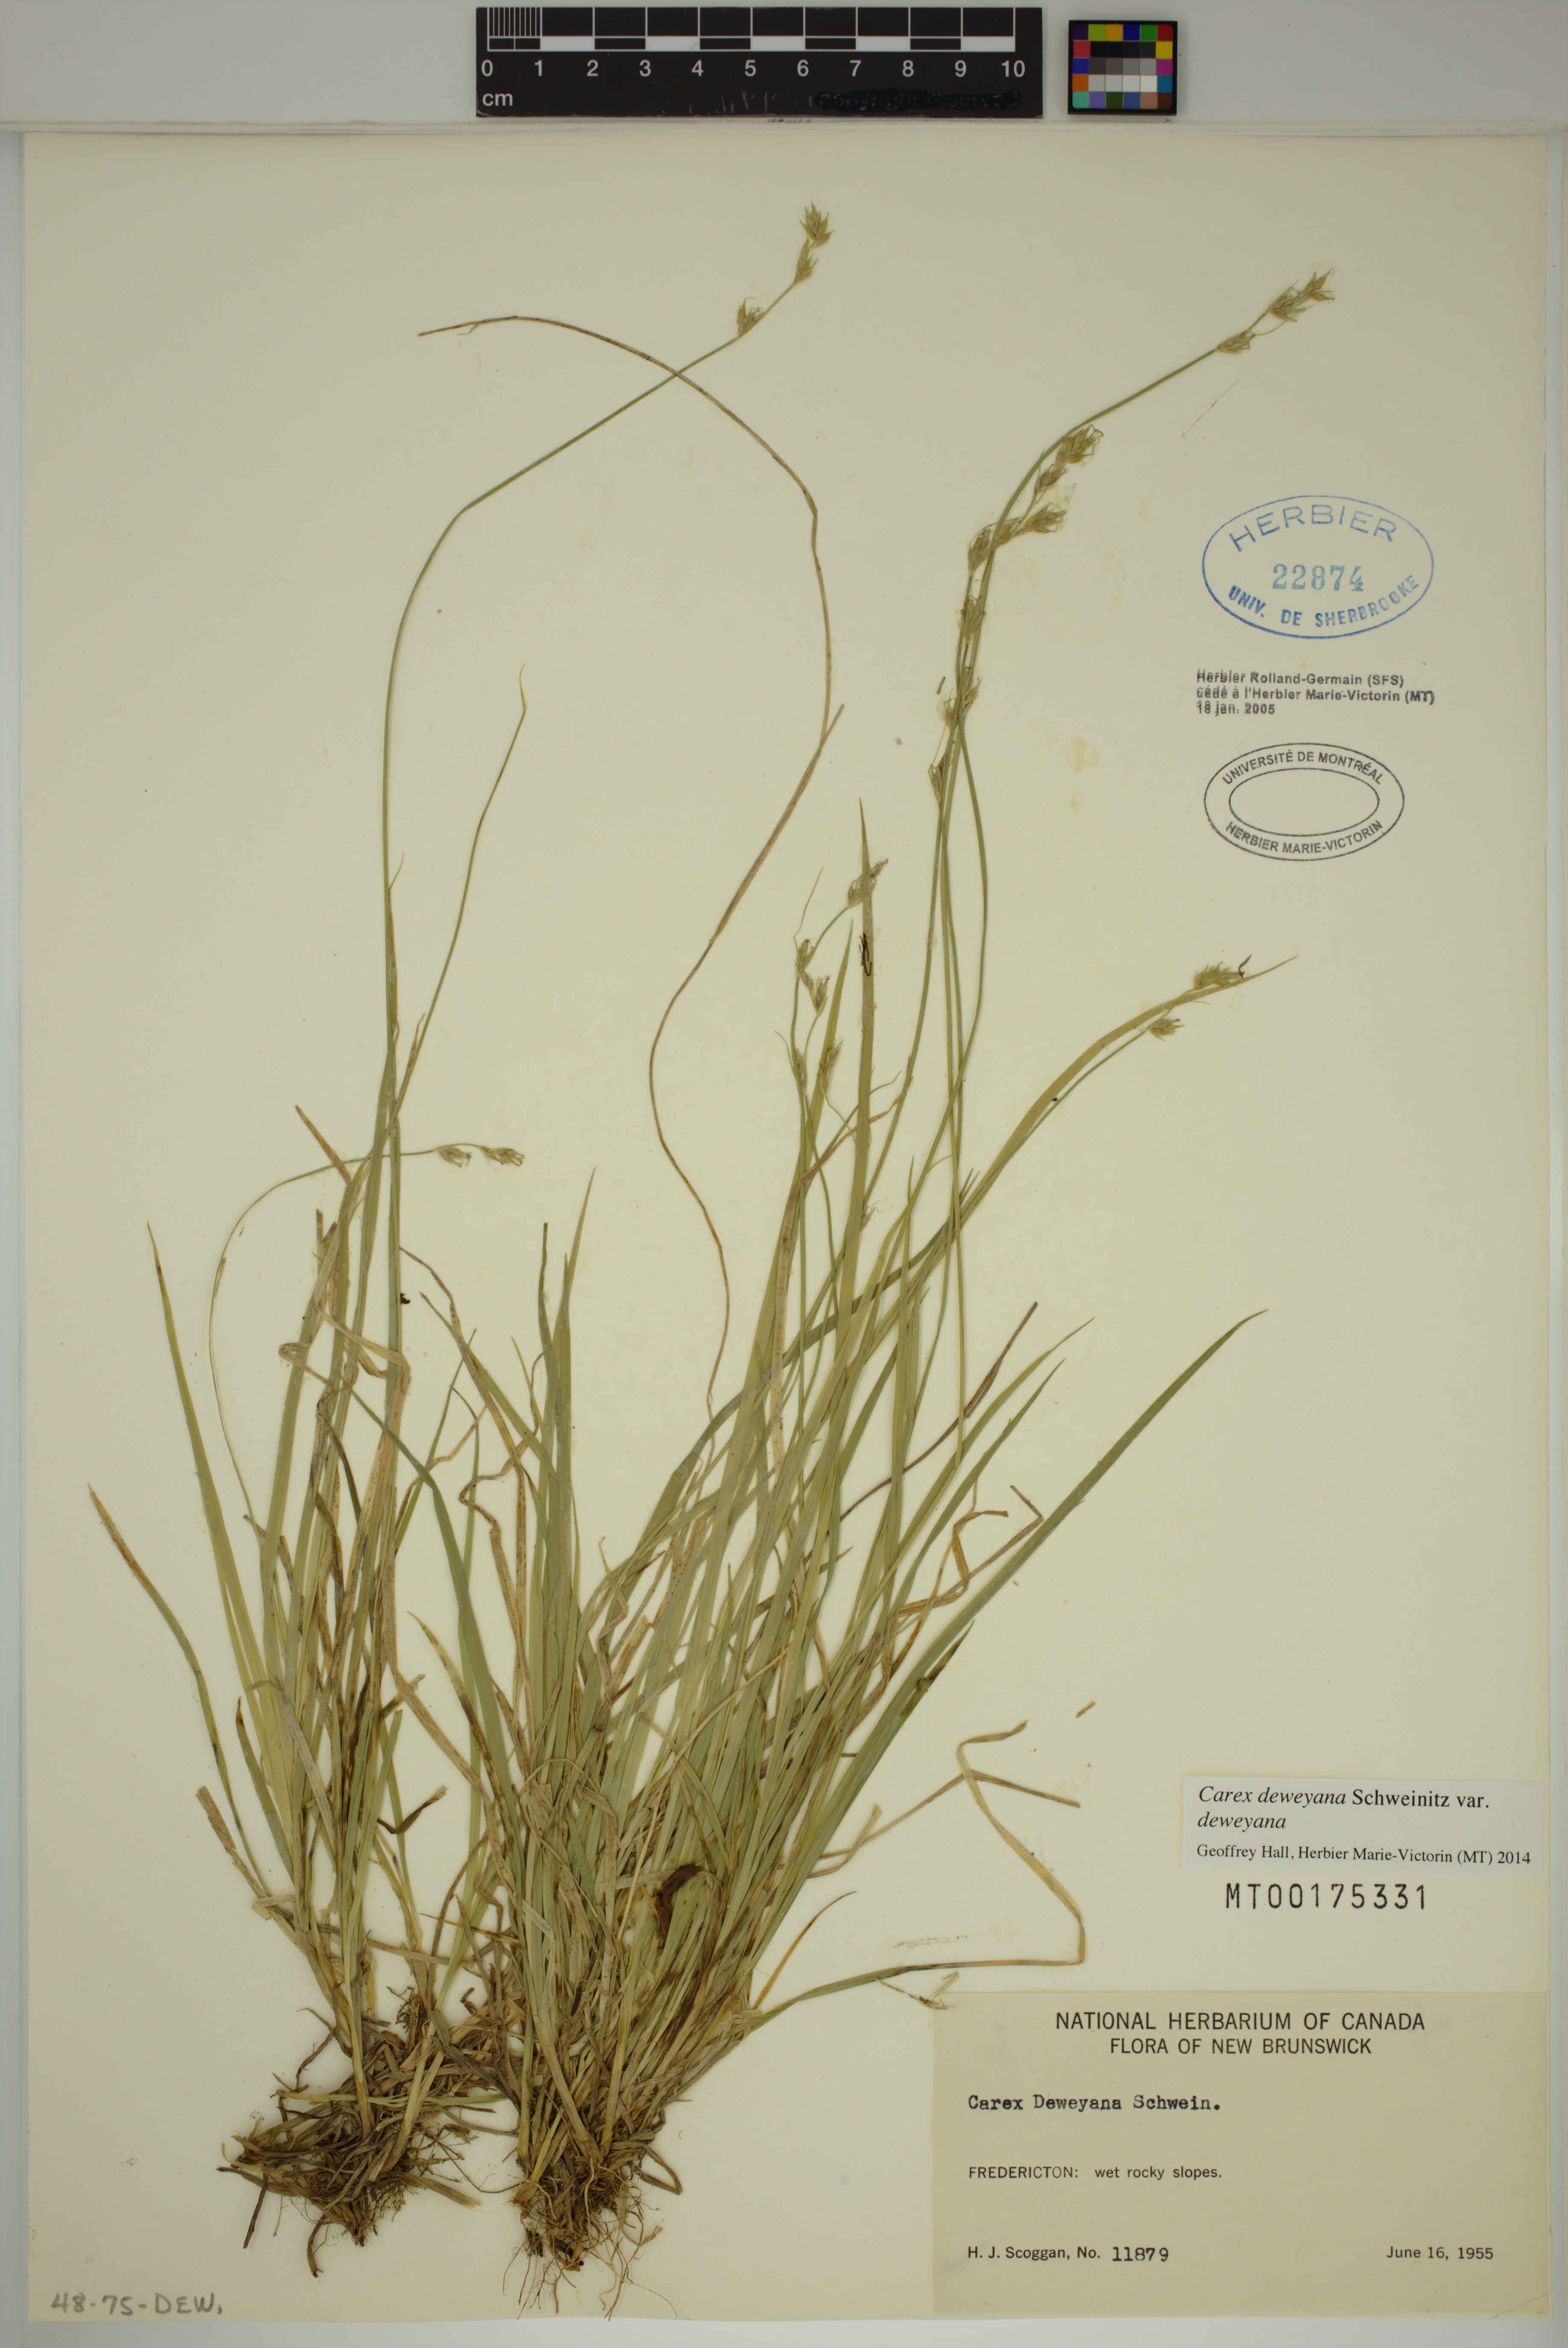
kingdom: Plantae
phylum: Tracheophyta
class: Liliopsida
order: Poales
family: Cyperaceae
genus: Carex
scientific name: Carex deweyana
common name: Dewey's sedge
